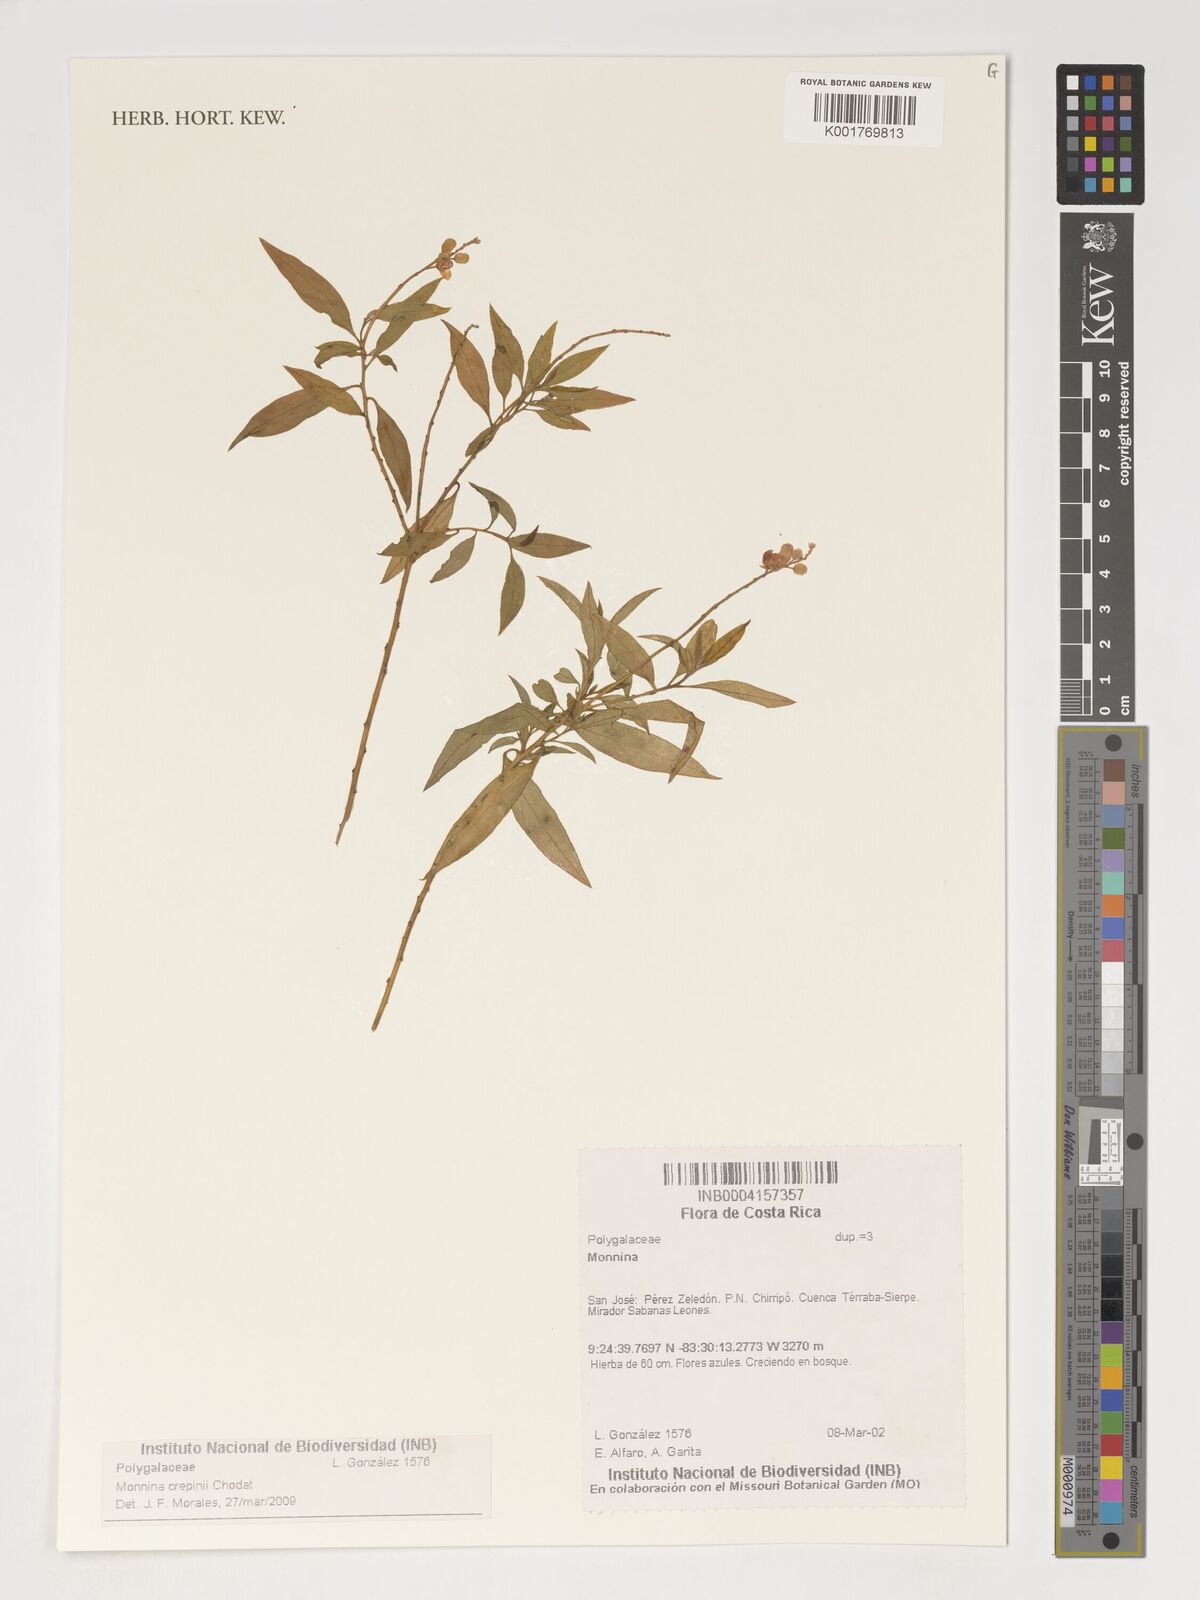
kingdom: Plantae
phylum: Tracheophyta
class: Magnoliopsida
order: Fabales
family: Polygalaceae
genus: Monnina
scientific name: Monnina crepinii
